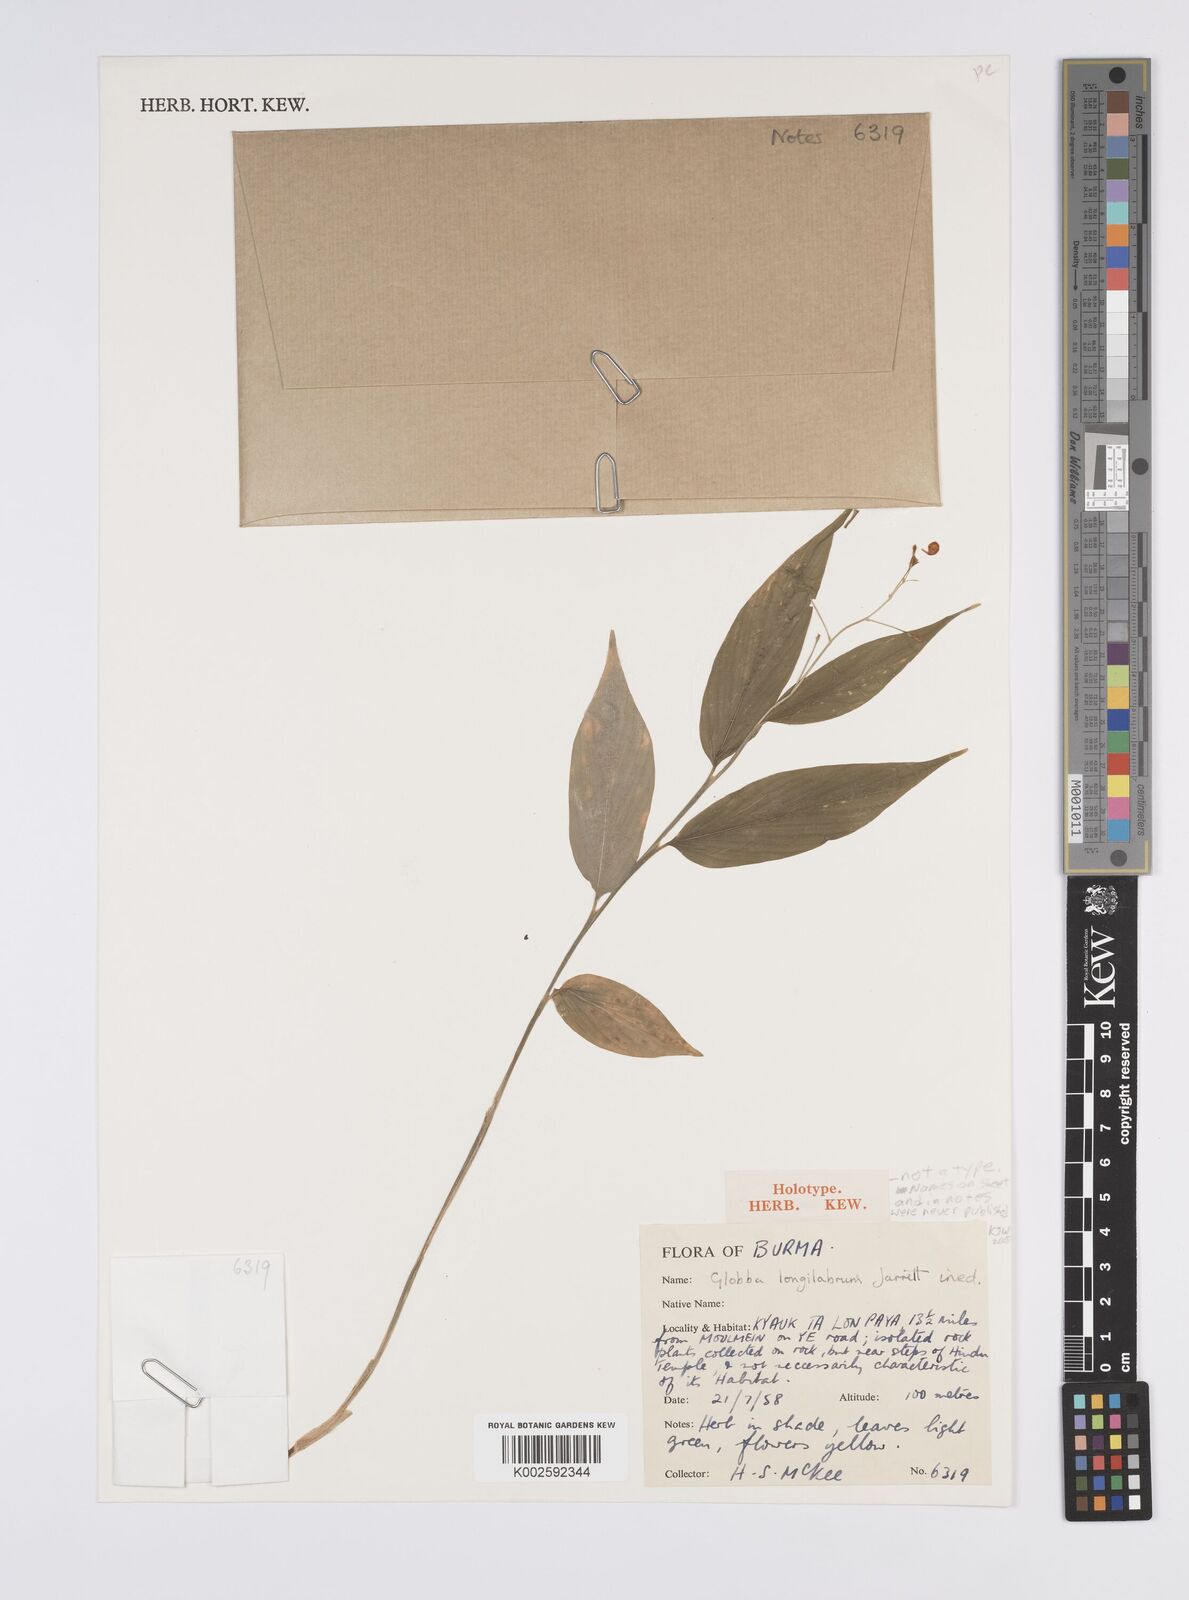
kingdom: Plantae
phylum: Tracheophyta
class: Liliopsida
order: Zingiberales
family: Zingiberaceae
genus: Globba
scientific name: Globba
